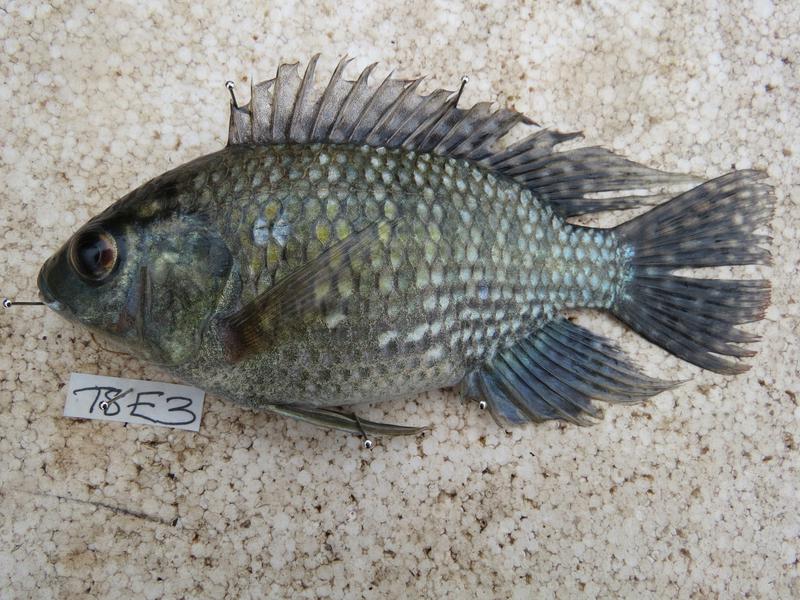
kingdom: Animalia
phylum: Chordata
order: Perciformes
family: Cichlidae
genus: Oreochromis
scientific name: Oreochromis leucostictus
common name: Blue spotted tilapia
